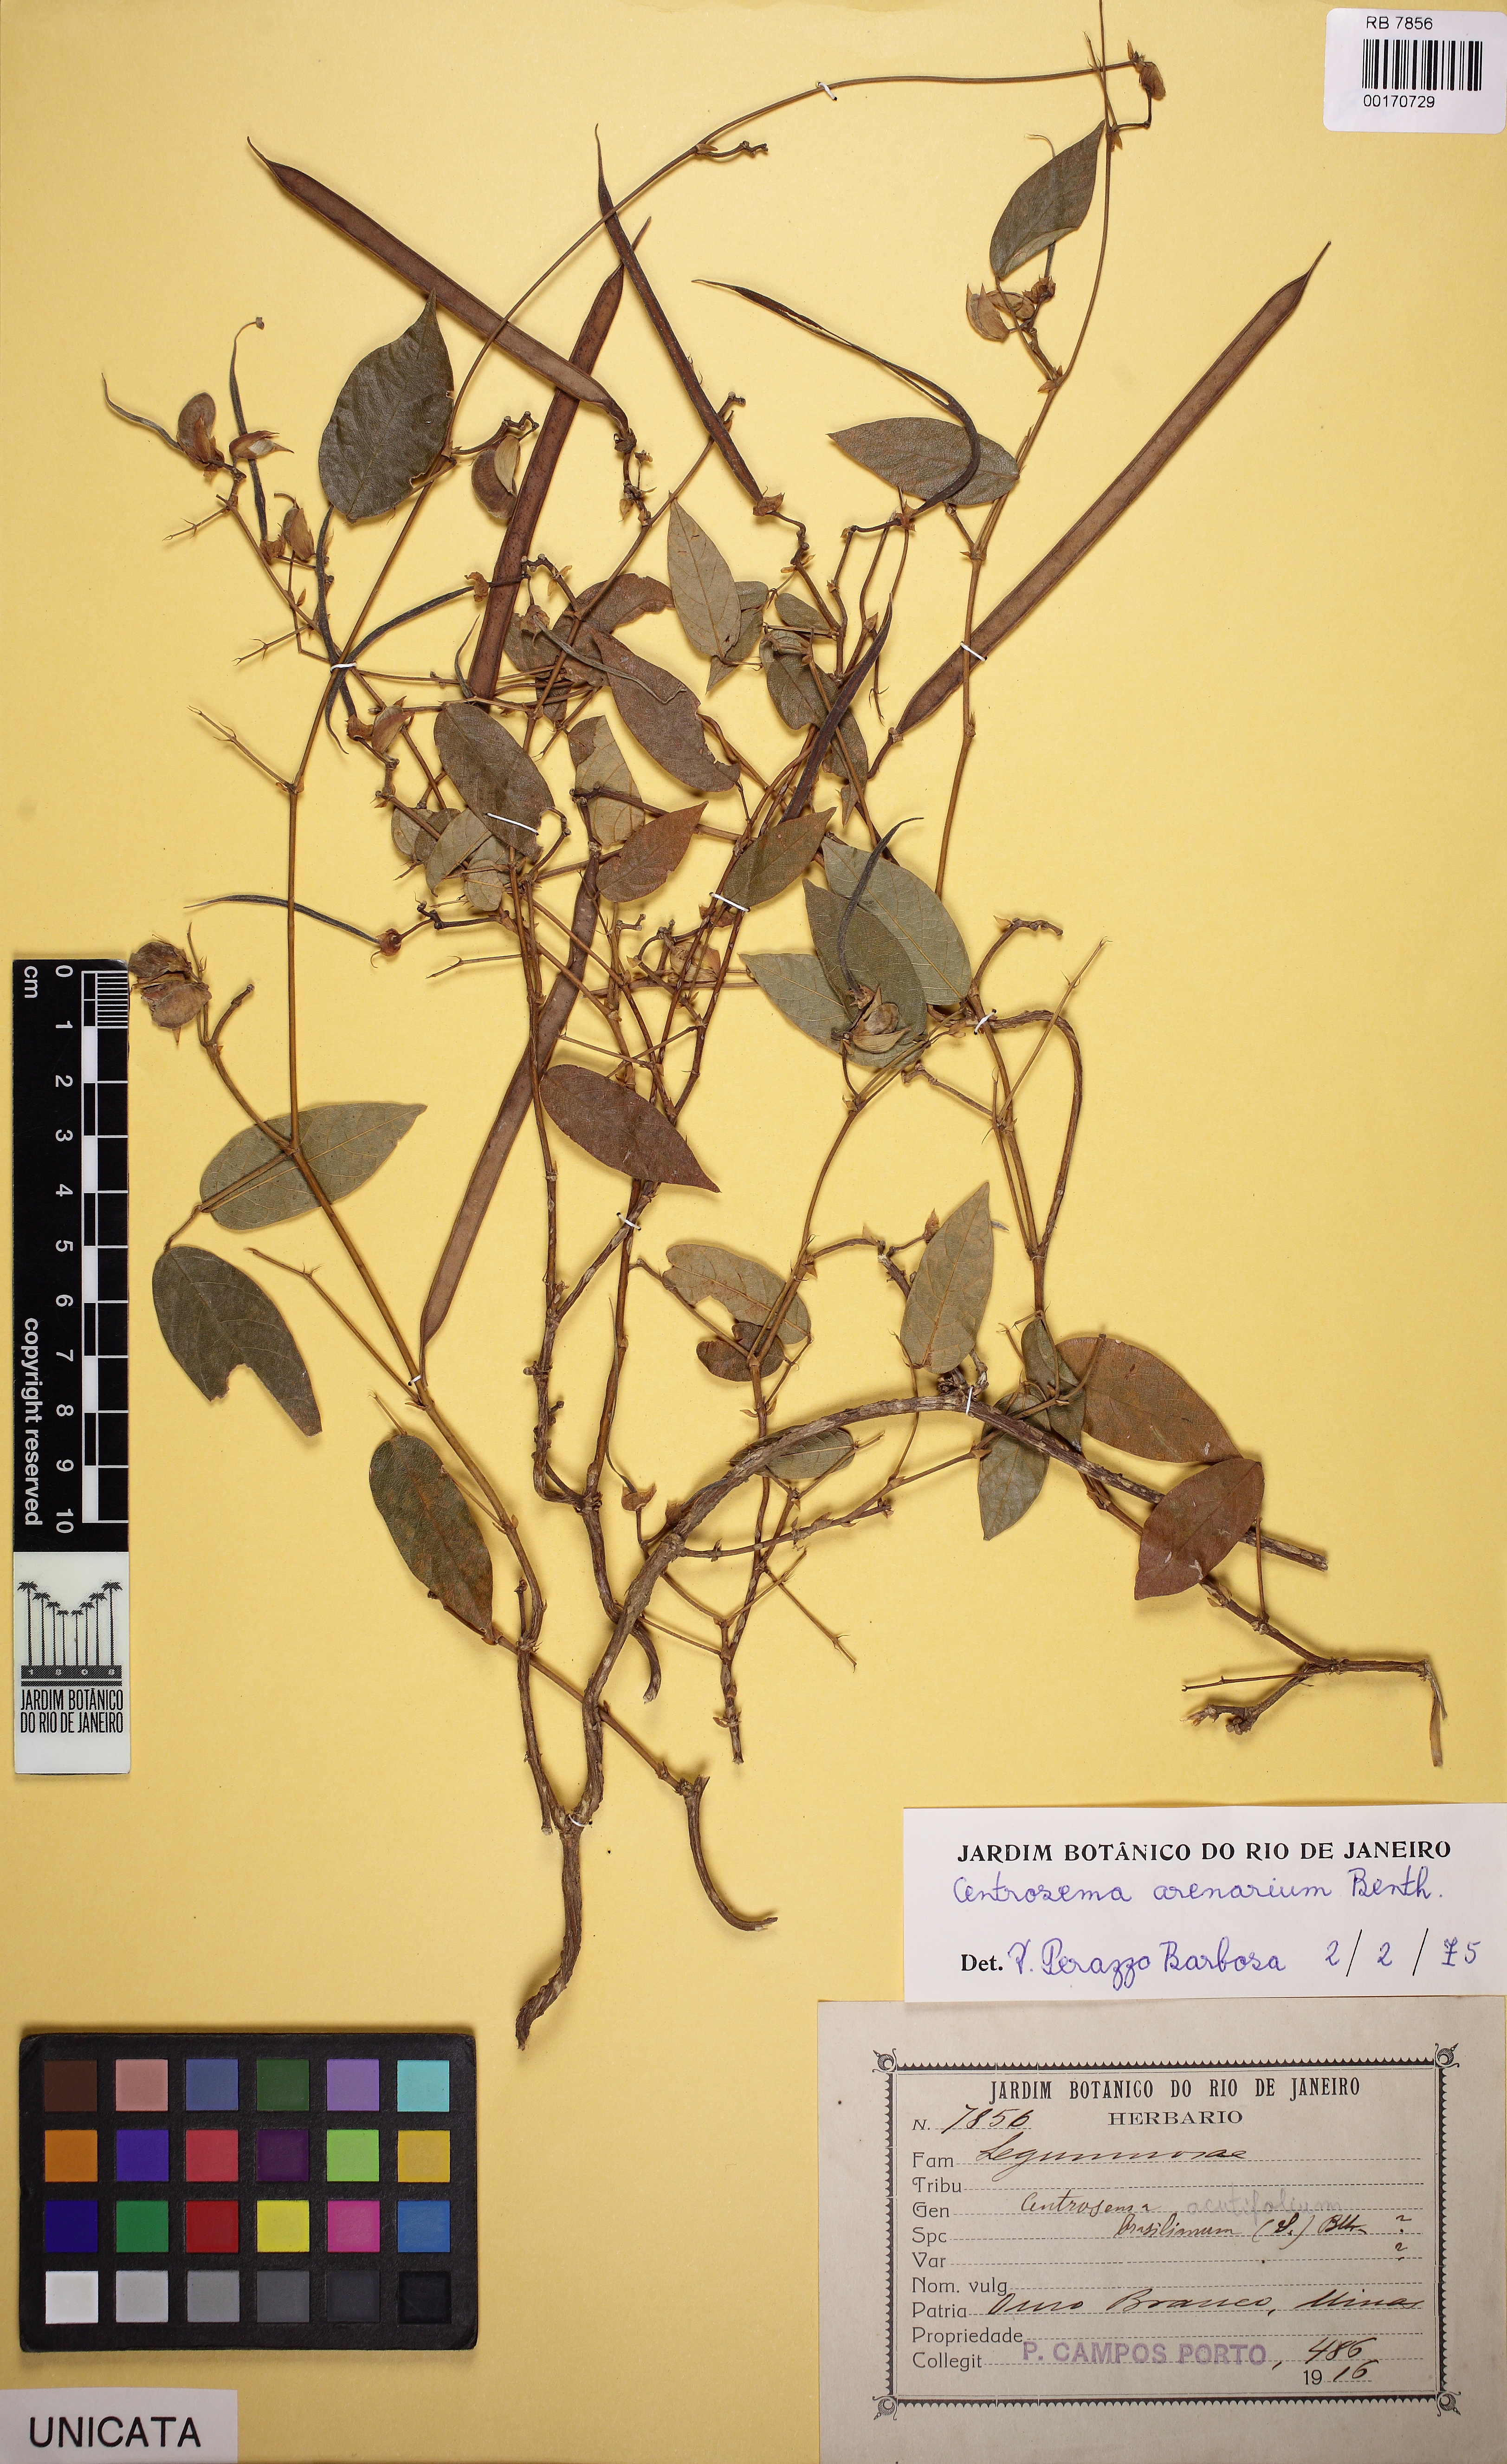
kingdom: Plantae
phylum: Tracheophyta
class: Magnoliopsida
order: Fabales
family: Fabaceae
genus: Centrosema
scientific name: Centrosema arenarium
